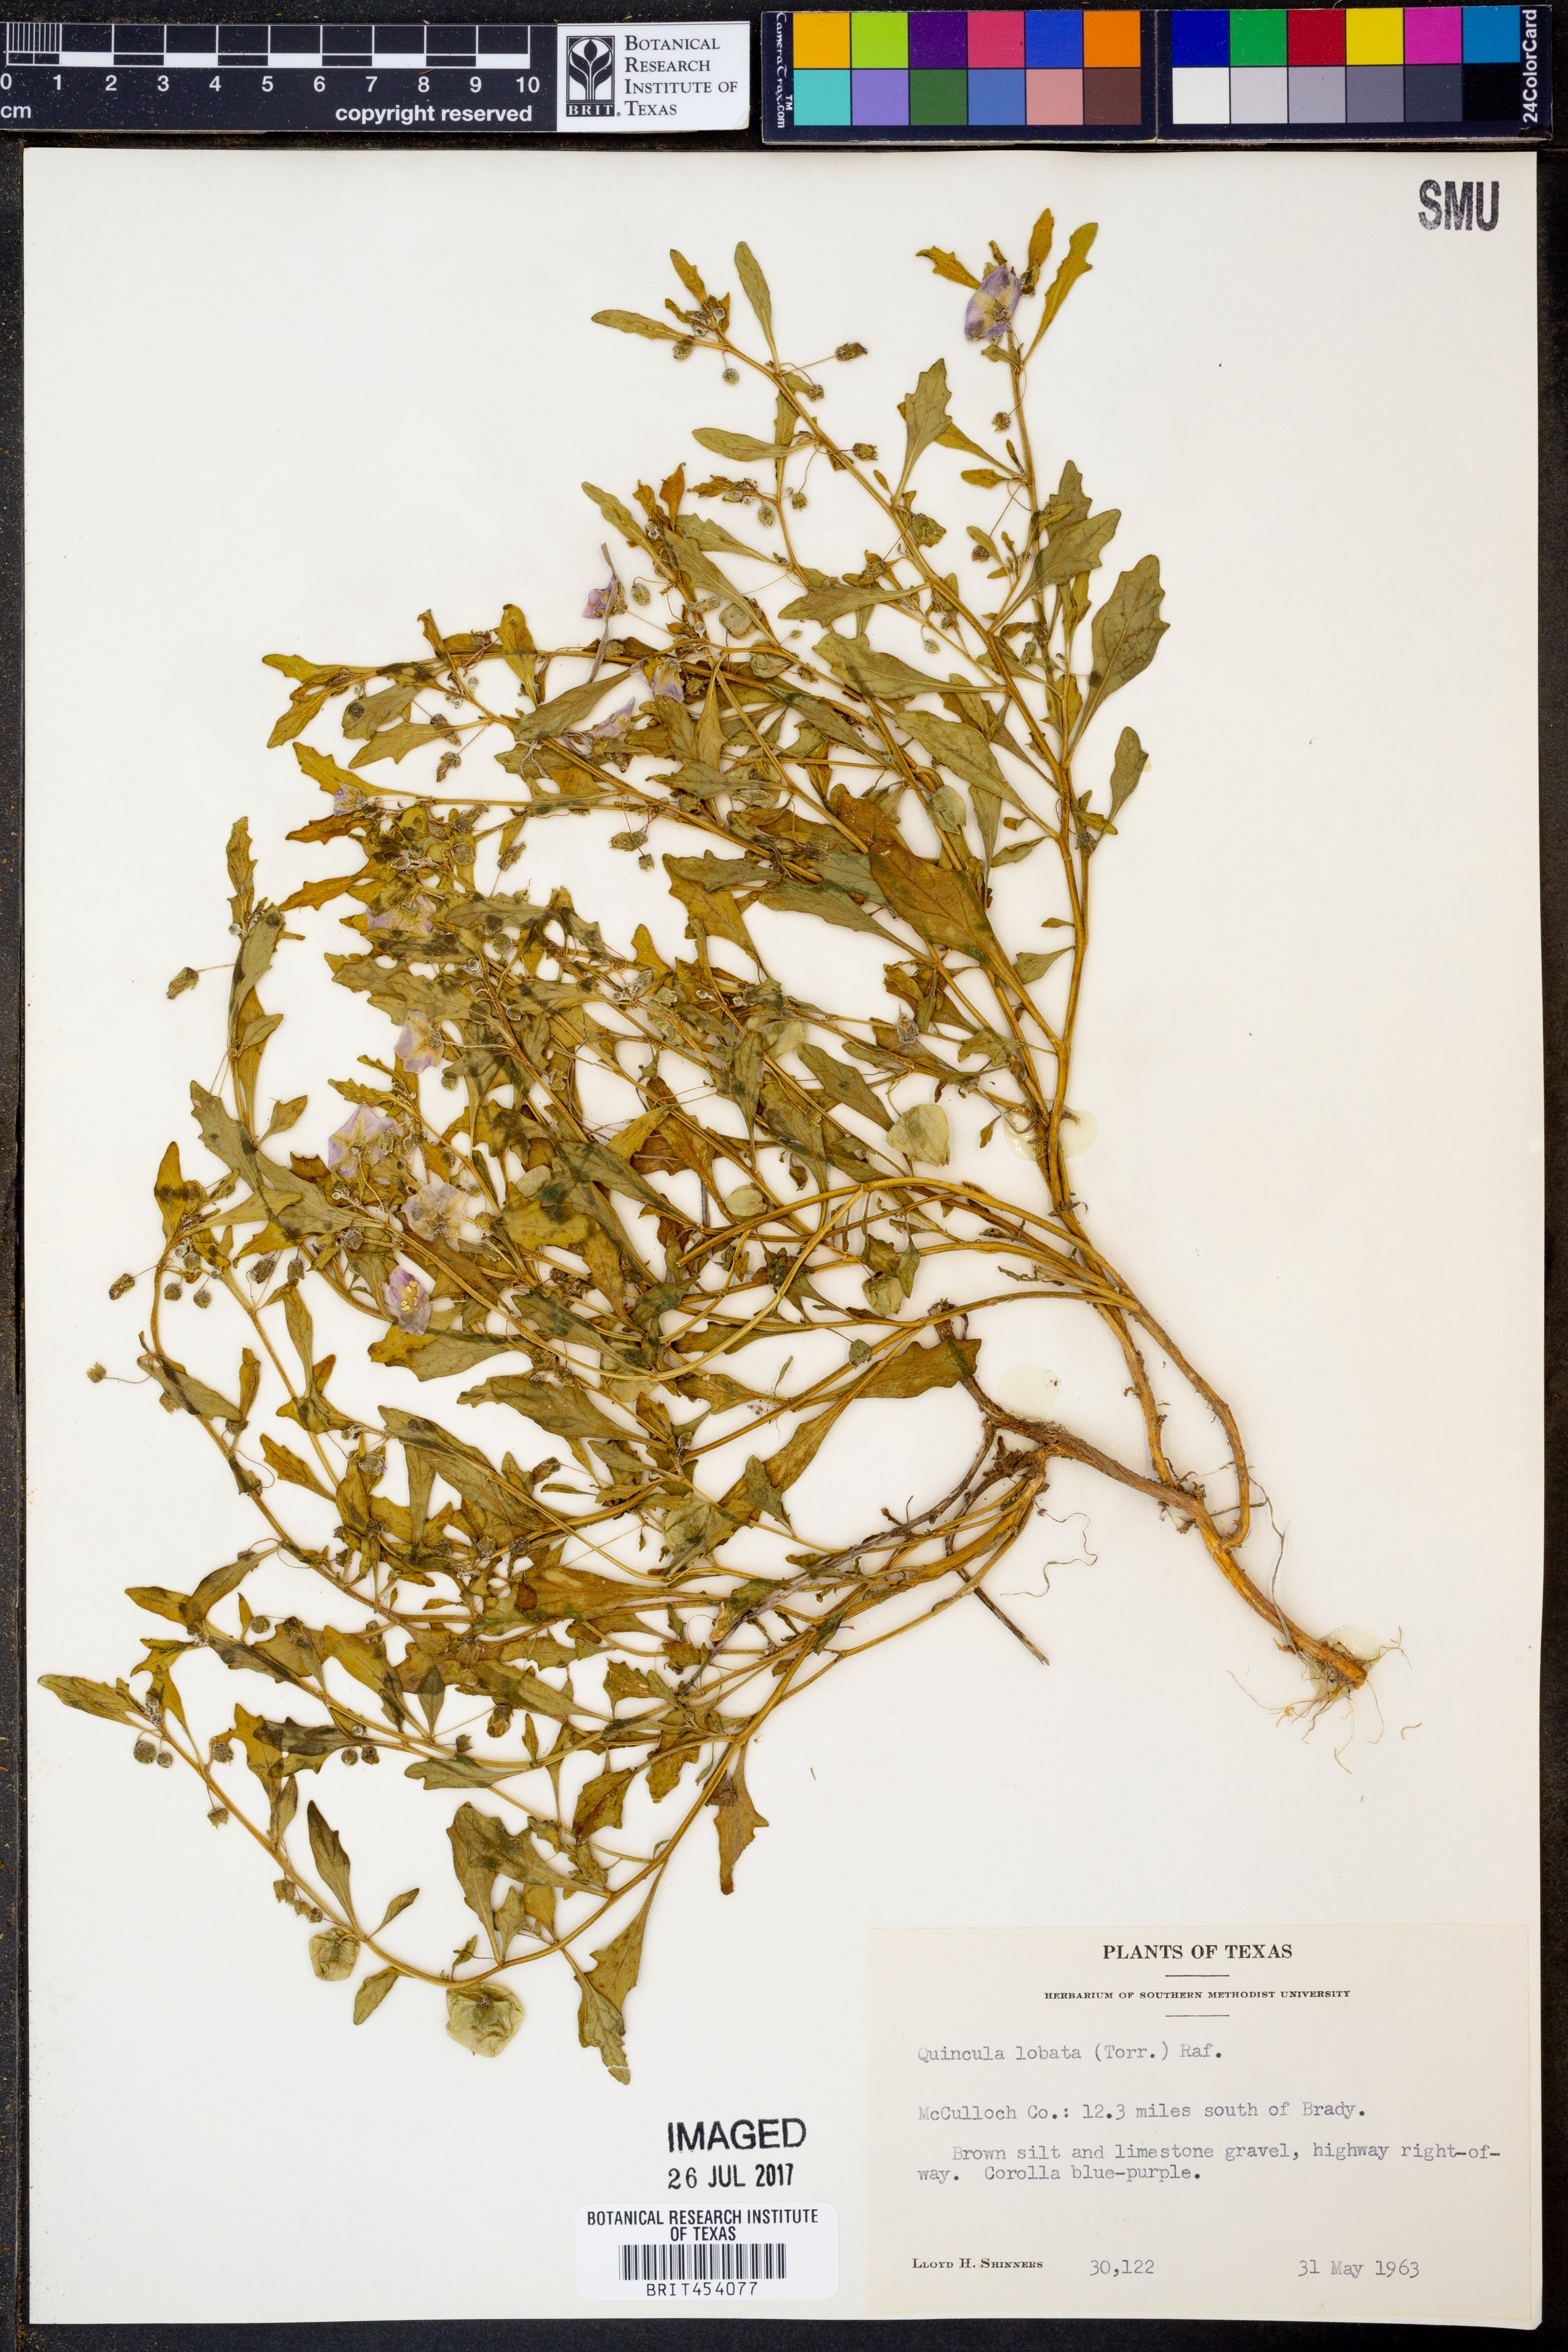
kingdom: Plantae
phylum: Tracheophyta
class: Magnoliopsida
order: Solanales
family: Solanaceae
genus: Quincula
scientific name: Quincula lobata
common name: Purple-ground-cherry
